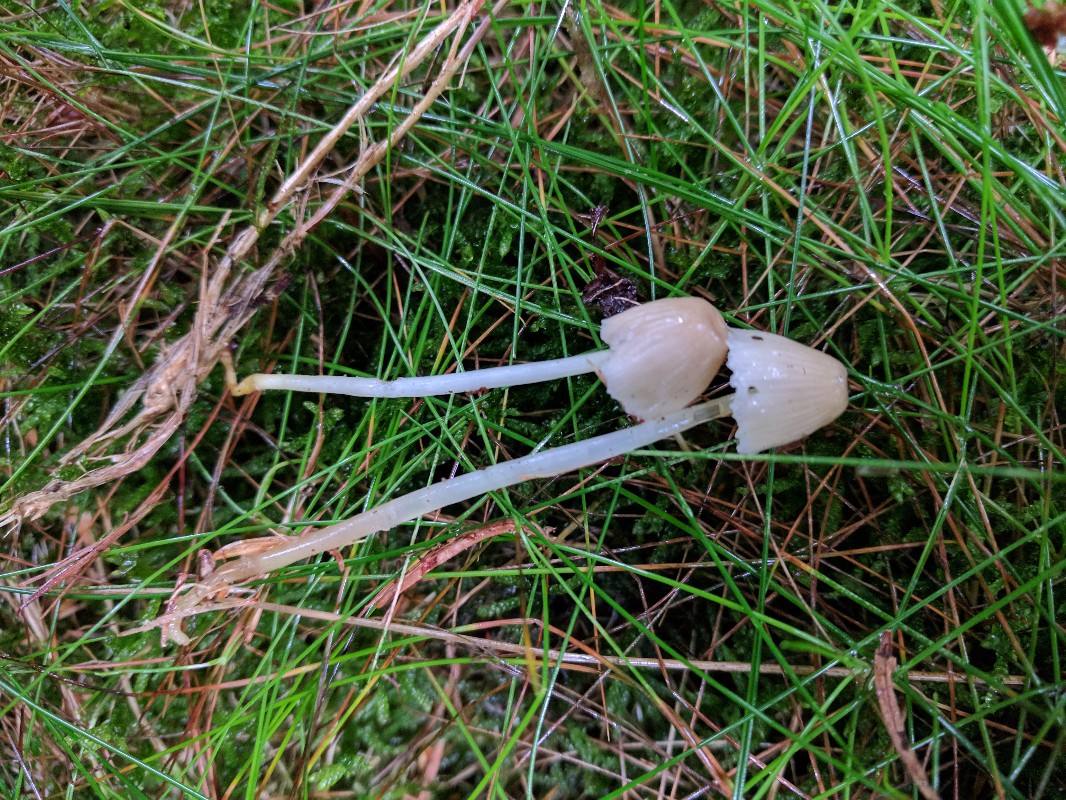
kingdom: Fungi
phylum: Basidiomycota
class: Agaricomycetes
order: Agaricales
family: Mycenaceae
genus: Mycena
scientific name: Mycena epipterygia
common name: gulstokket huesvamp
